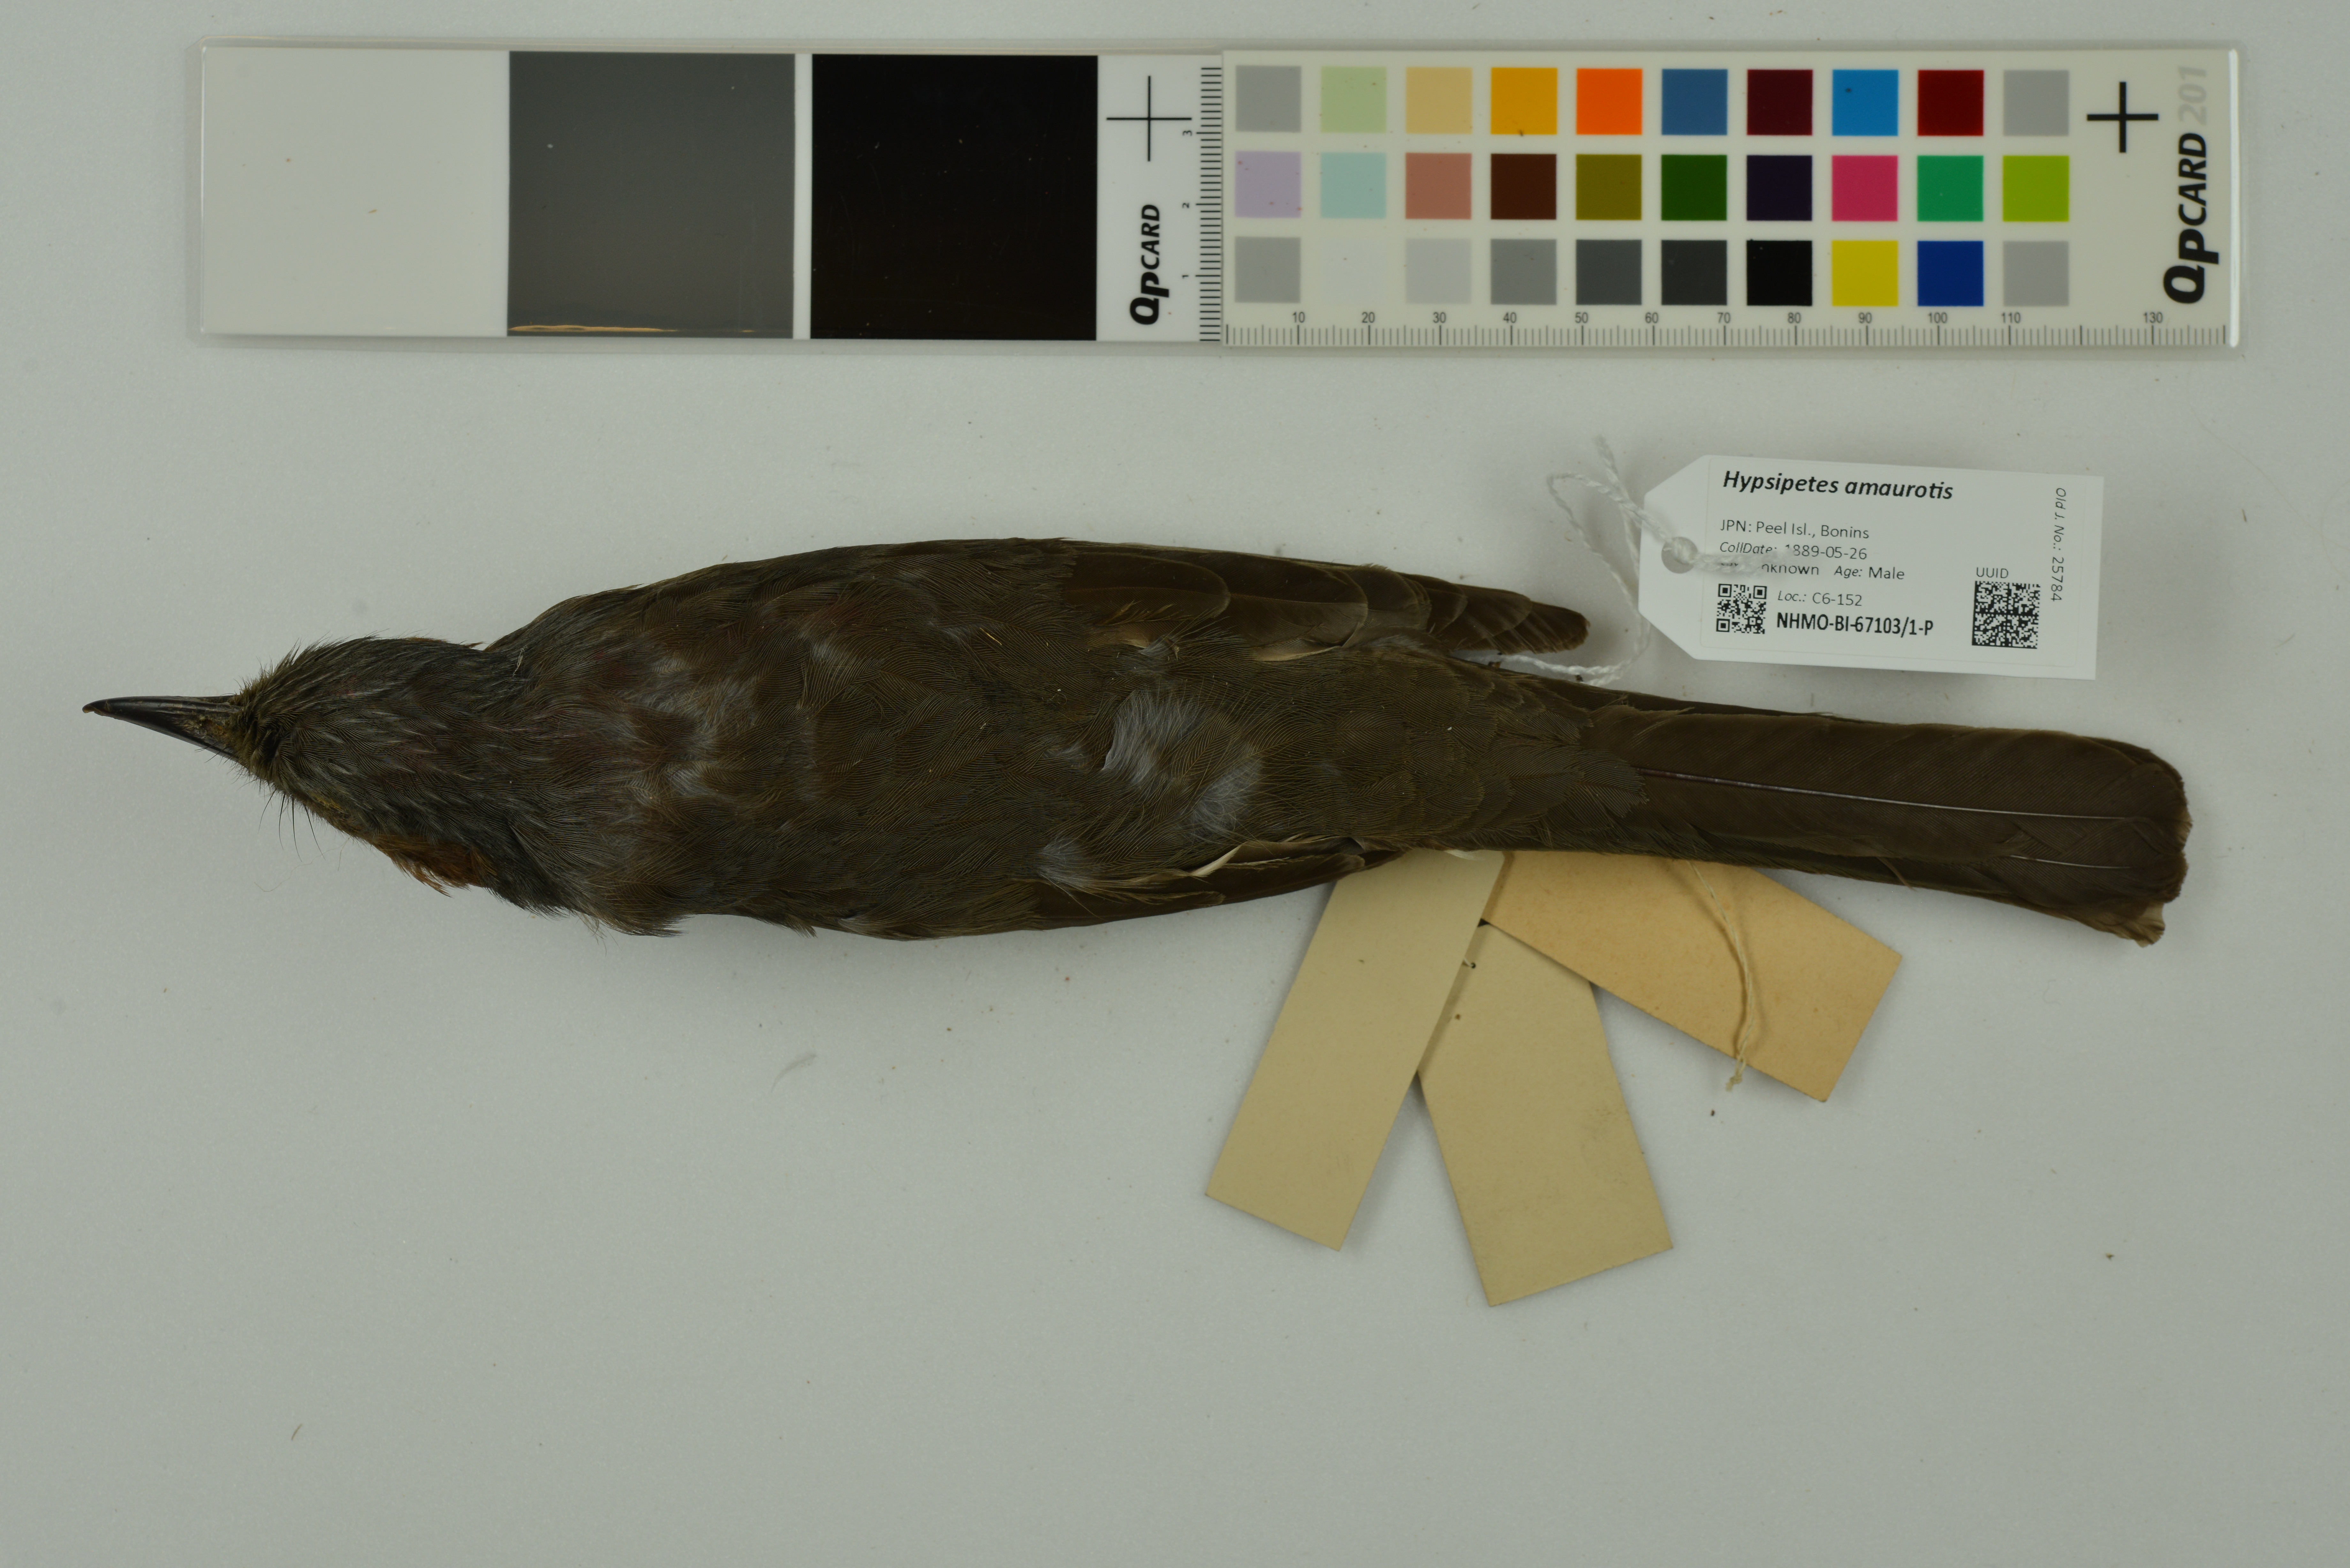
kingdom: Animalia
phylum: Chordata
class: Aves
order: Passeriformes
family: Pycnonotidae
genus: Hypsipetes
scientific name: Hypsipetes amaurotis
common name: Brown-eared bulbul
